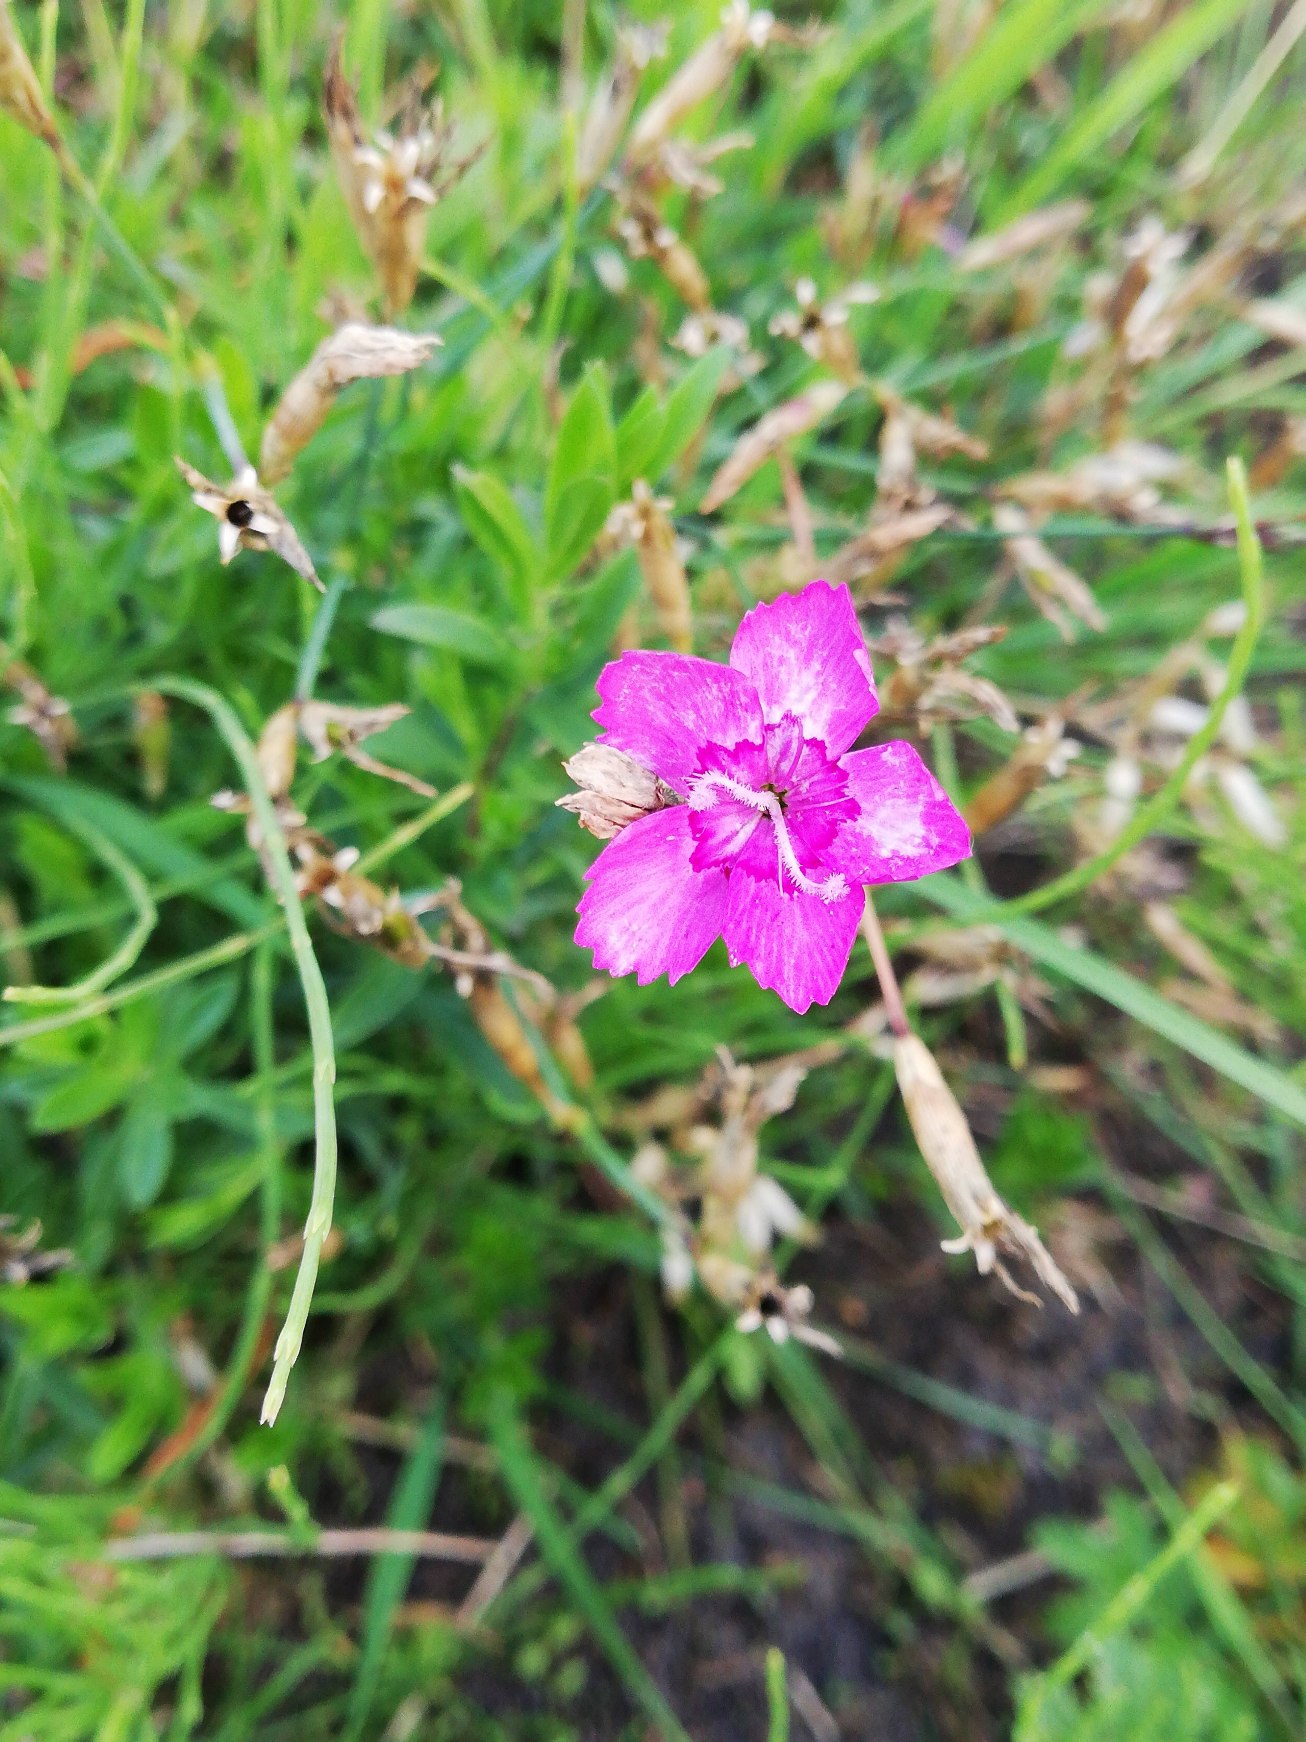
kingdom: Plantae
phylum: Tracheophyta
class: Magnoliopsida
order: Caryophyllales
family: Caryophyllaceae
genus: Dianthus
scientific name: Dianthus deltoides
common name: Bakke-nellike
